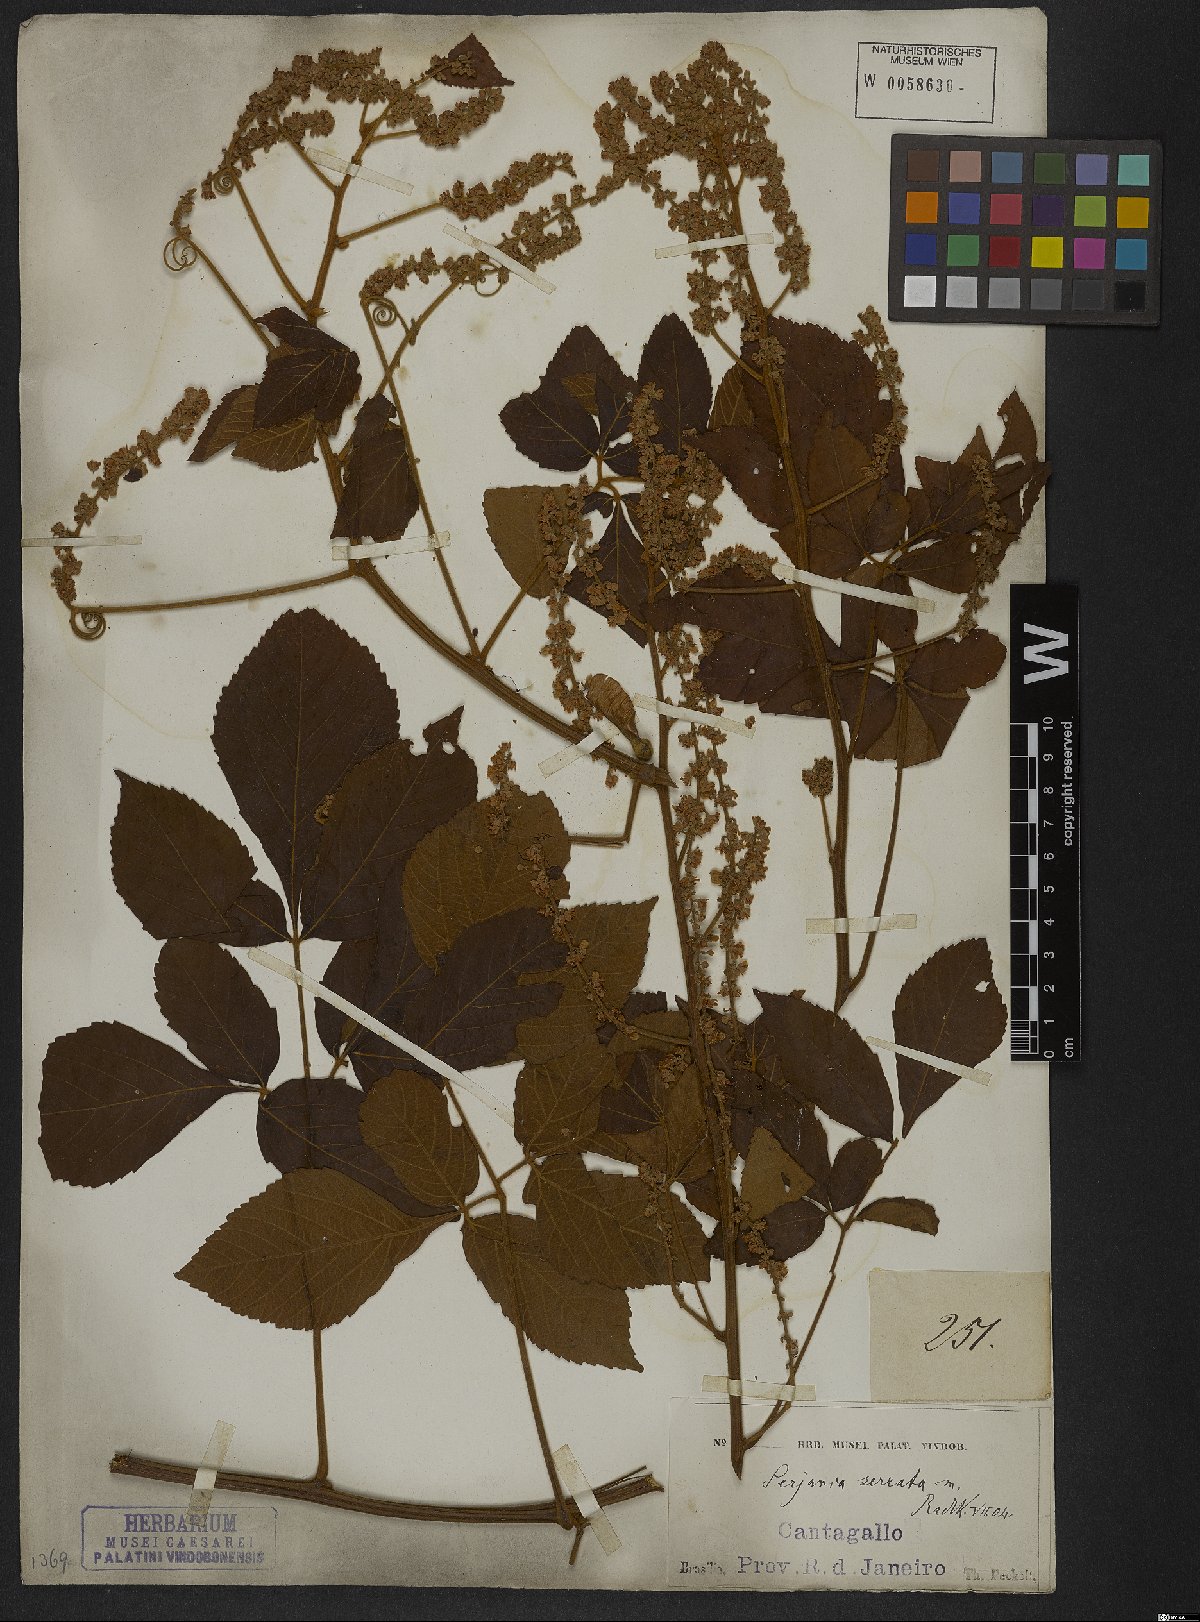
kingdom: Plantae
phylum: Tracheophyta
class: Magnoliopsida
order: Sapindales
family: Sapindaceae
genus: Serjania
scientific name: Serjania serrata
